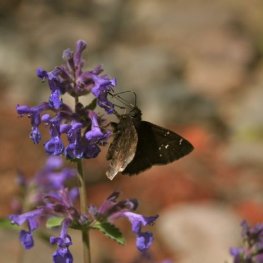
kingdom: Animalia
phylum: Arthropoda
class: Insecta
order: Lepidoptera
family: Hesperiidae
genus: Autochton
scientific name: Autochton
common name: Northern Cloudywing
